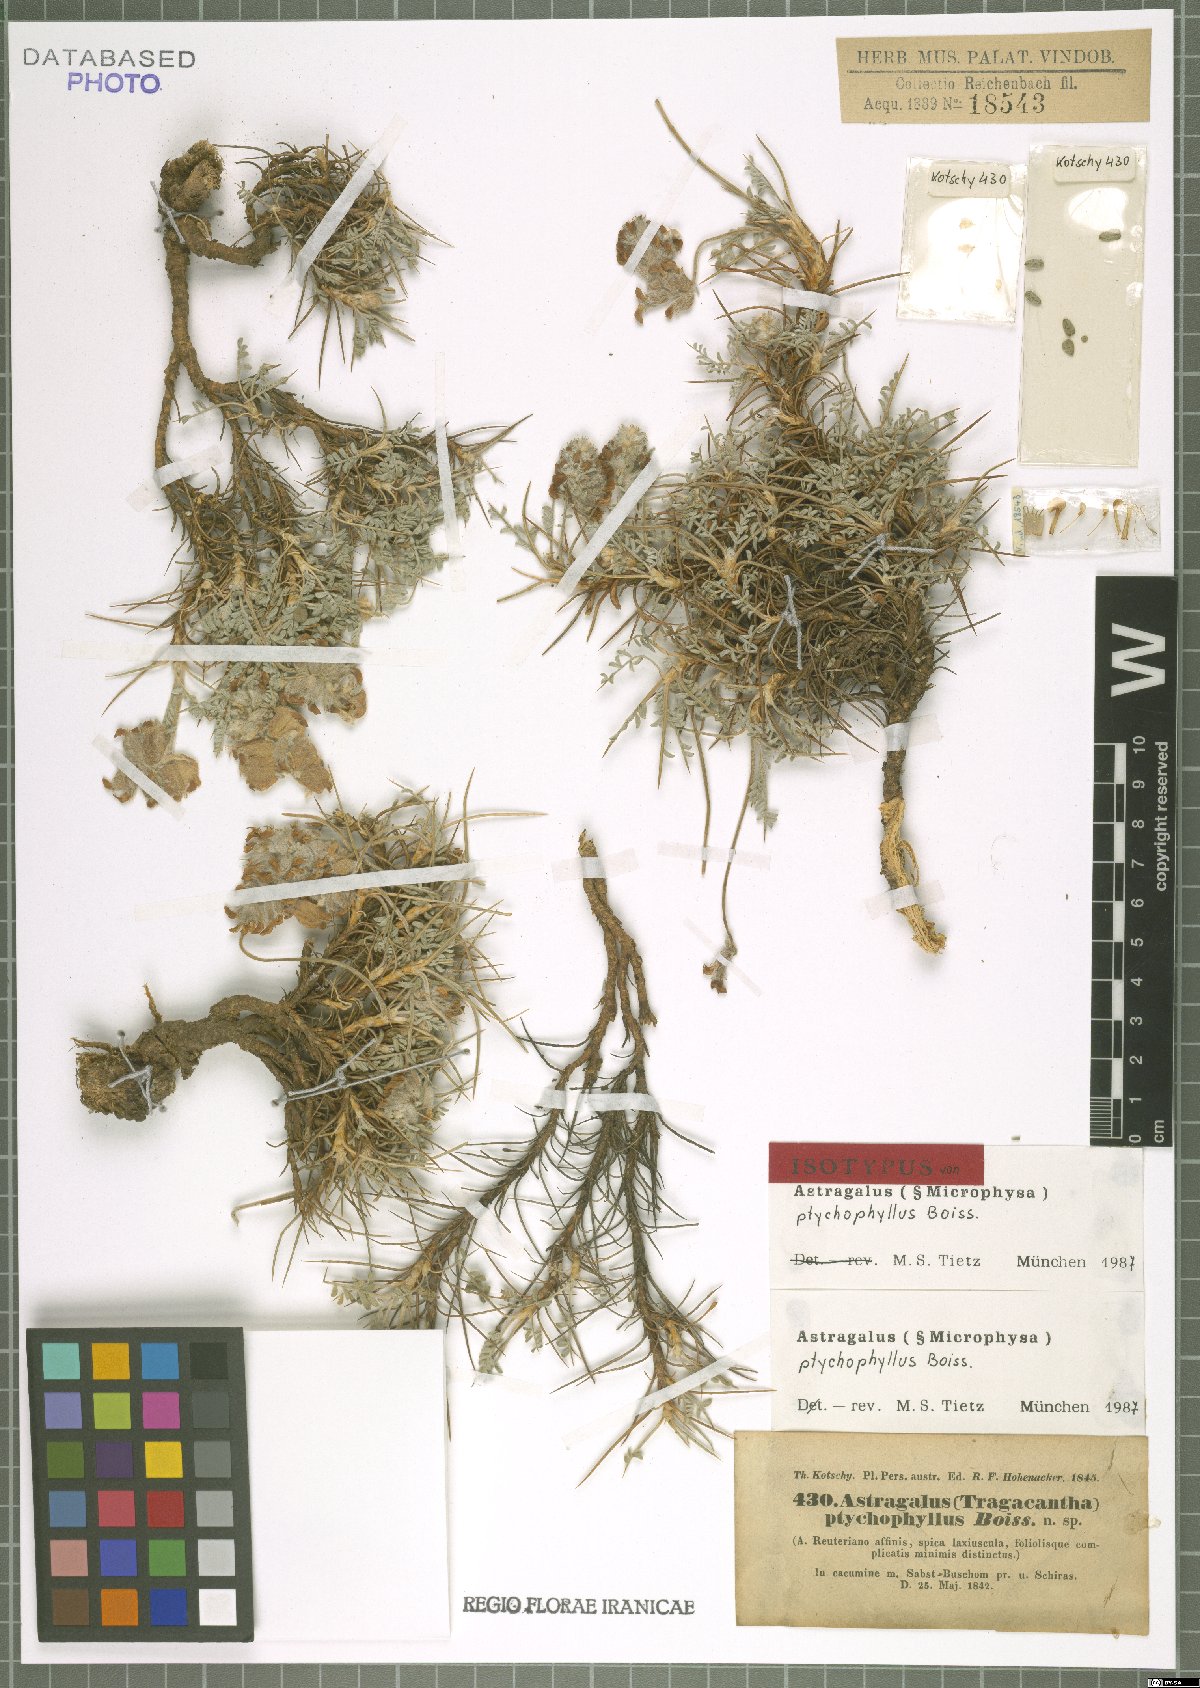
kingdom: Plantae
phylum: Tracheophyta
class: Magnoliopsida
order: Fabales
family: Fabaceae
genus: Astragalus
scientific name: Astragalus ptychophyllus
